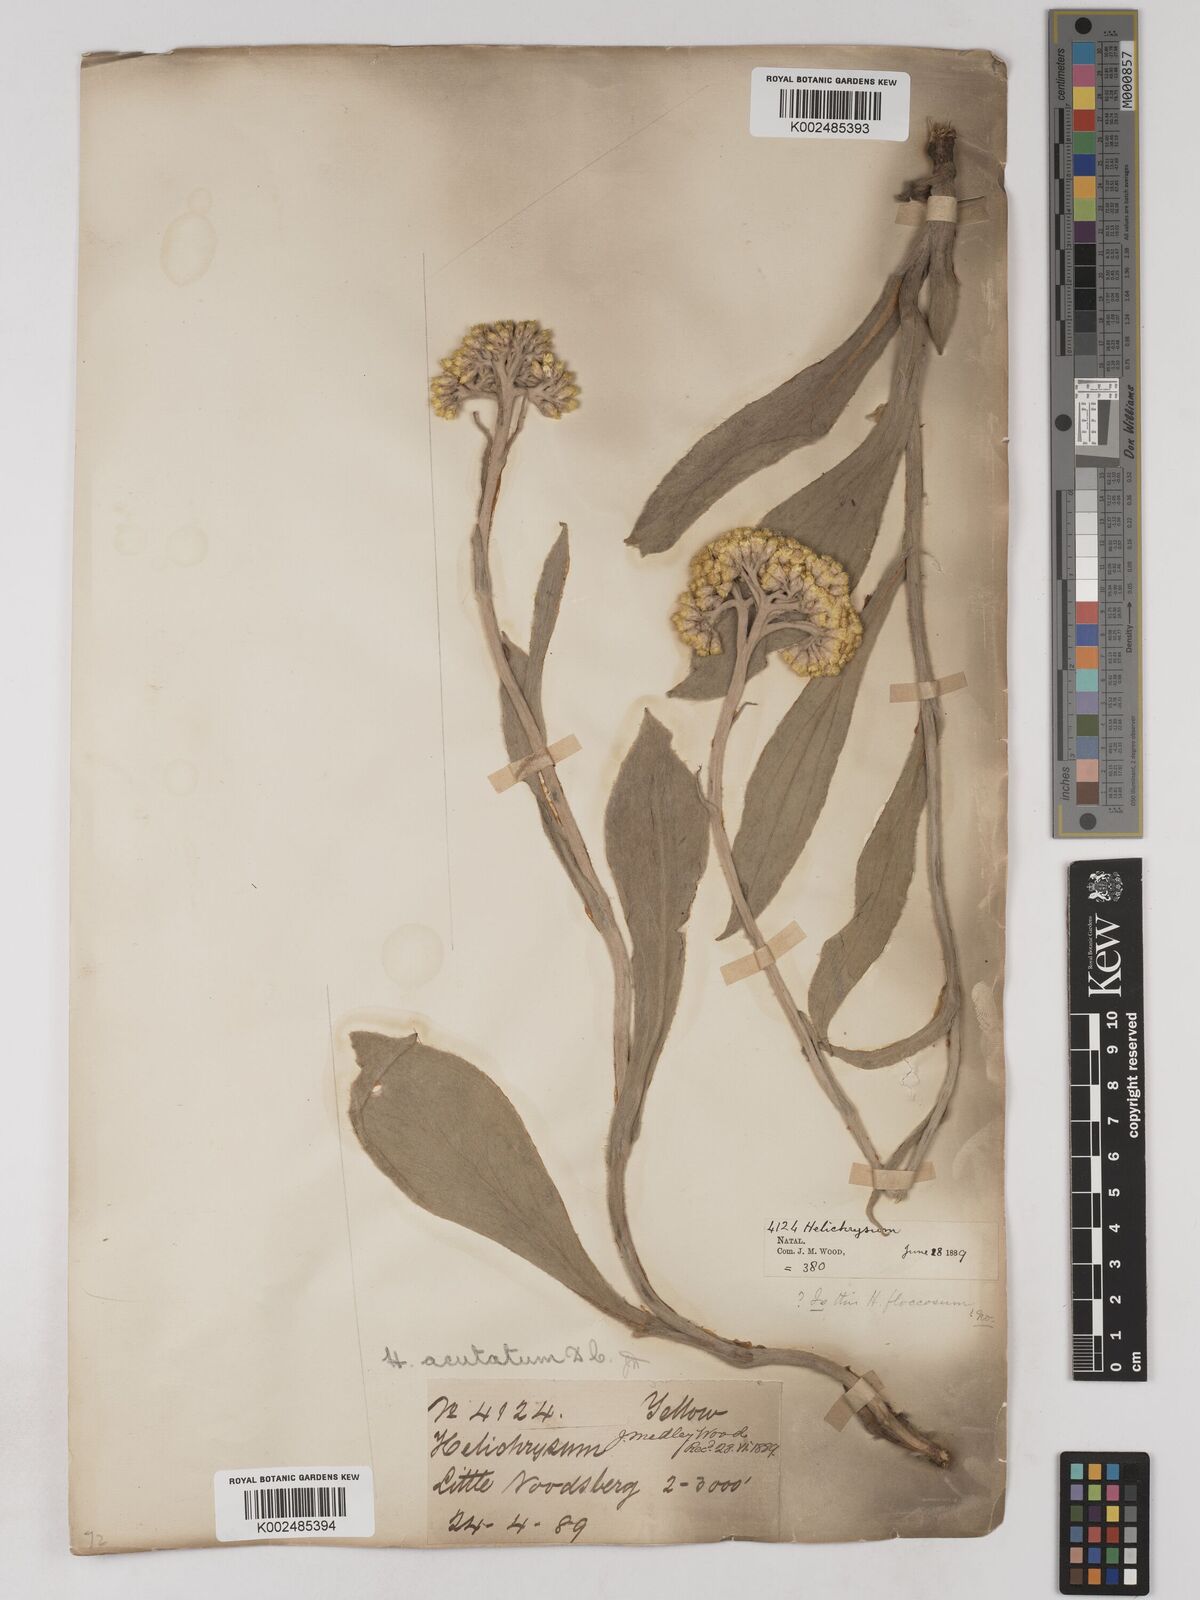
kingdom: Plantae
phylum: Tracheophyta
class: Magnoliopsida
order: Asterales
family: Asteraceae
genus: Helichrysum
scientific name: Helichrysum acutatum
